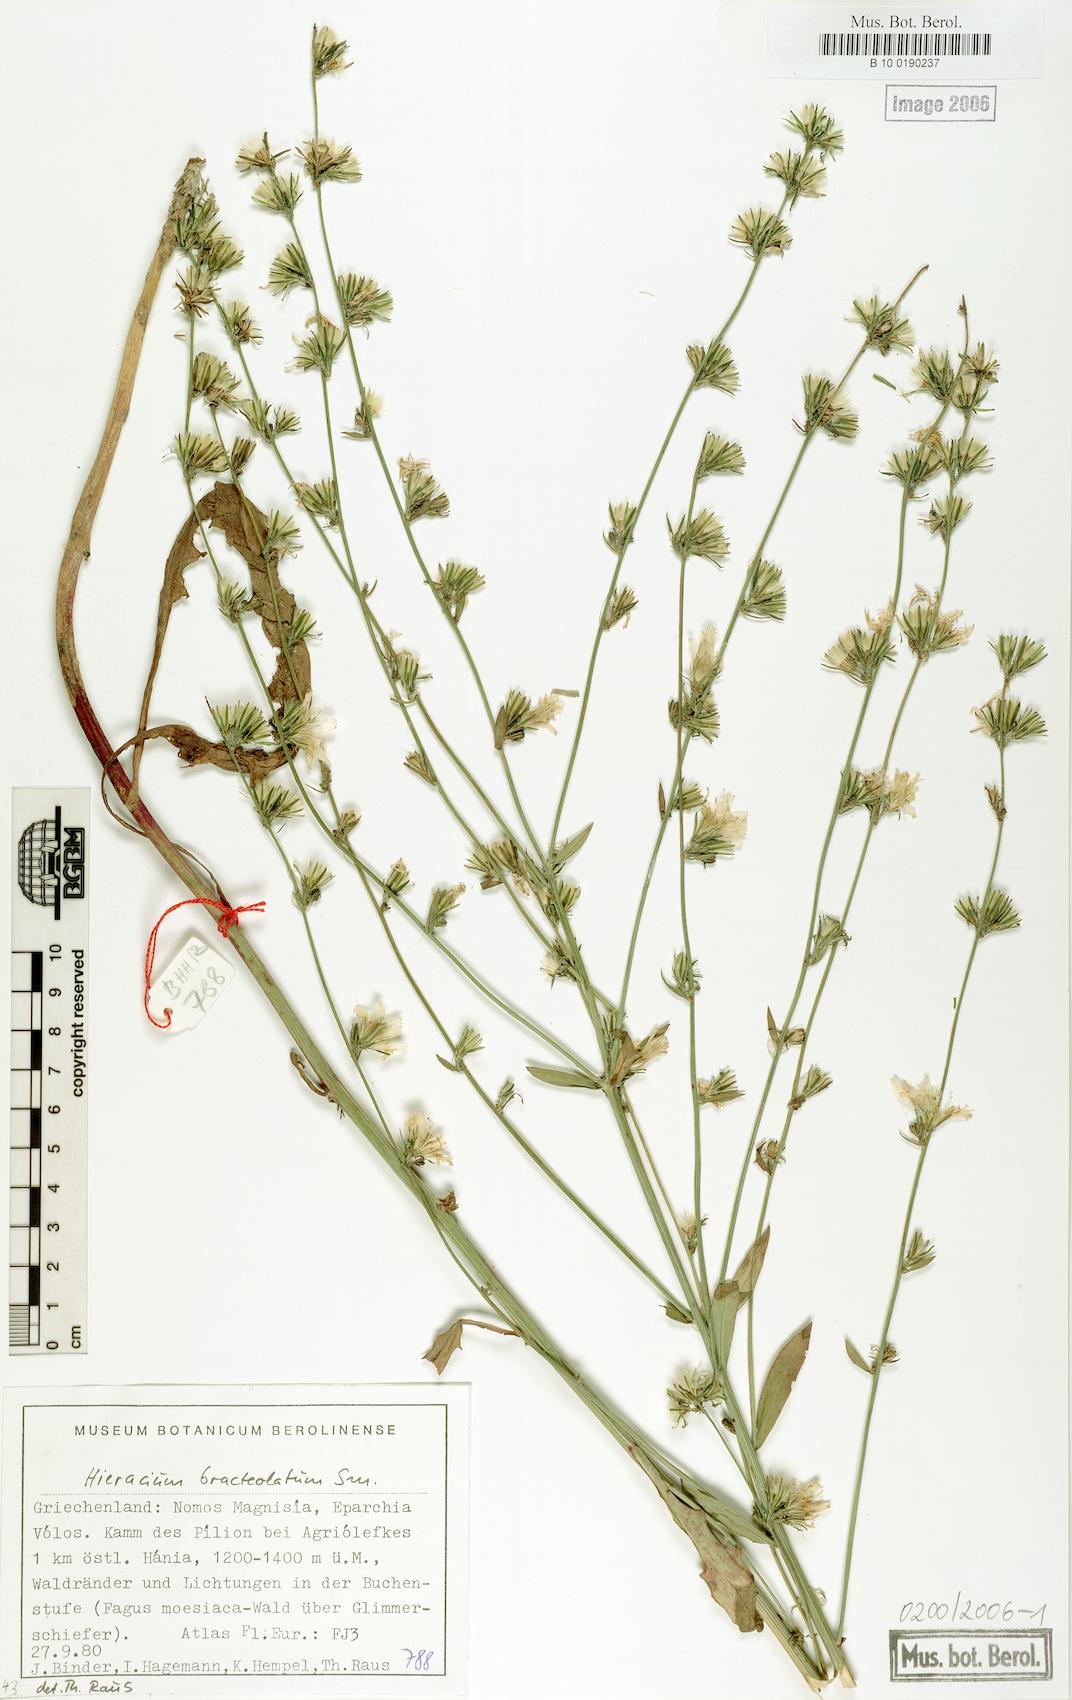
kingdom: Plantae
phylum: Tracheophyta
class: Magnoliopsida
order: Asterales
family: Asteraceae
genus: Hieracium
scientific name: Hieracium bracteolatum
